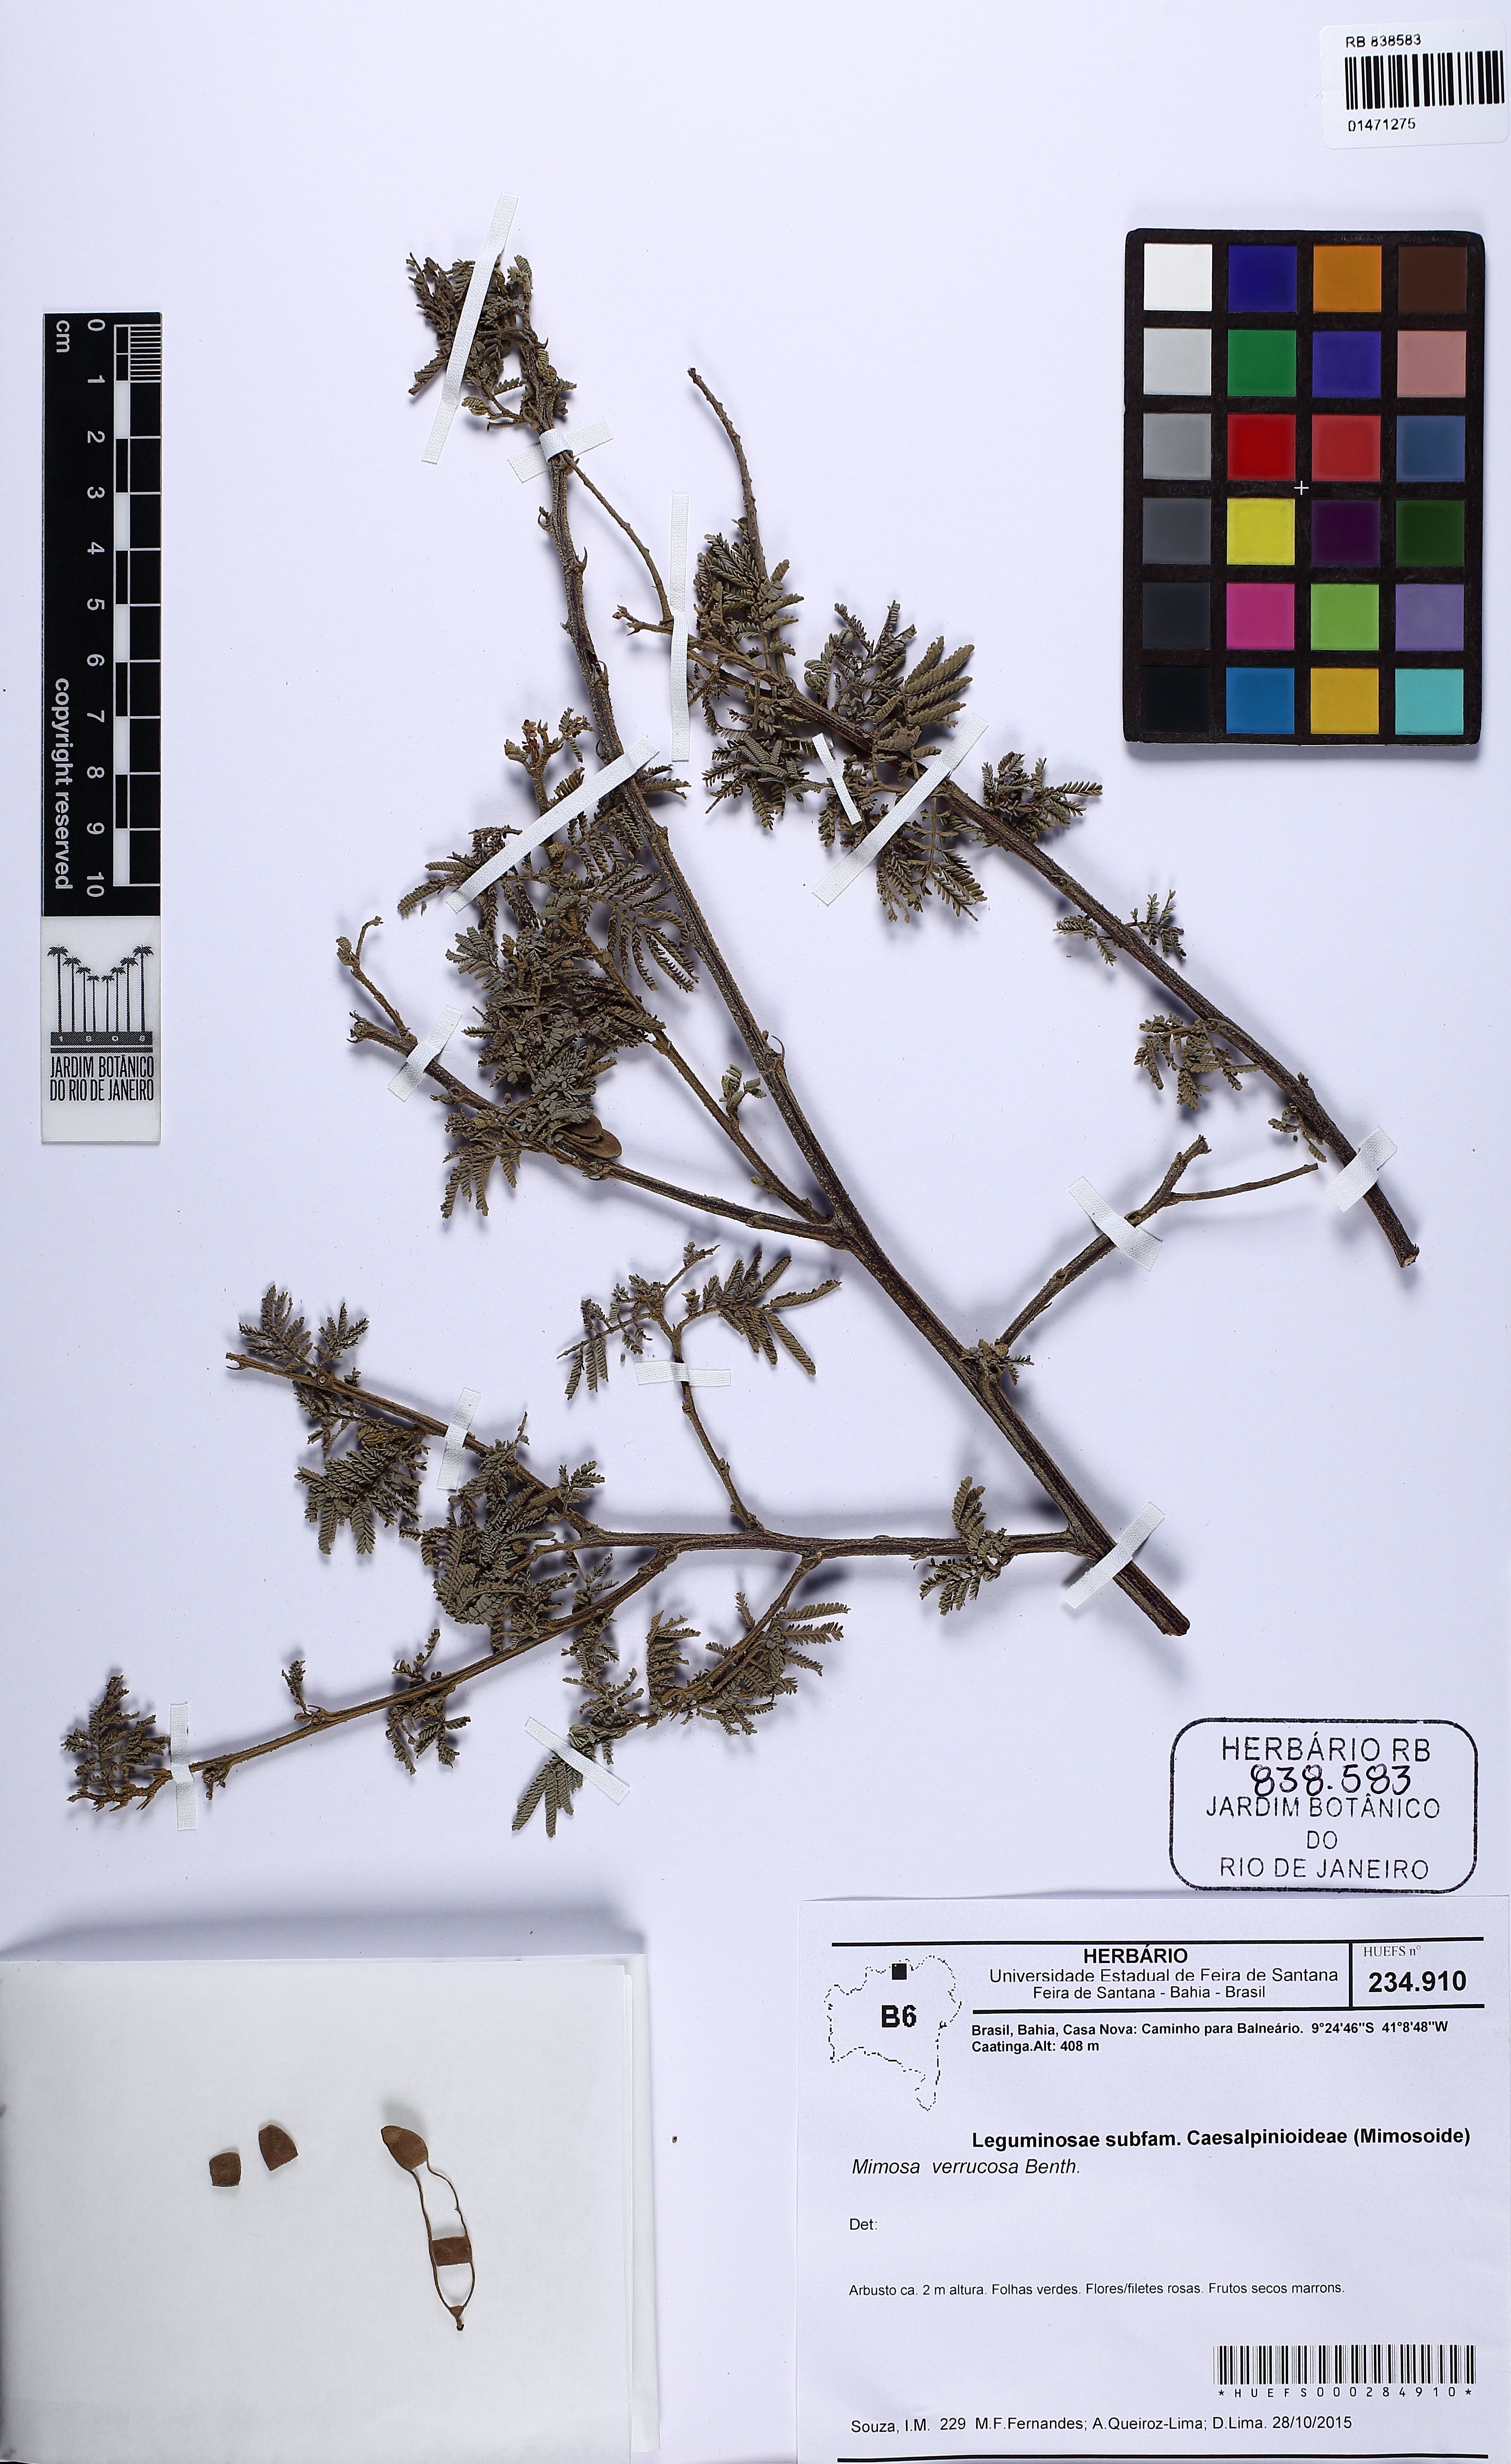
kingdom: Plantae
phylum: Tracheophyta
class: Magnoliopsida
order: Fabales
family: Fabaceae
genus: Mimosa
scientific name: Mimosa verrucosa
